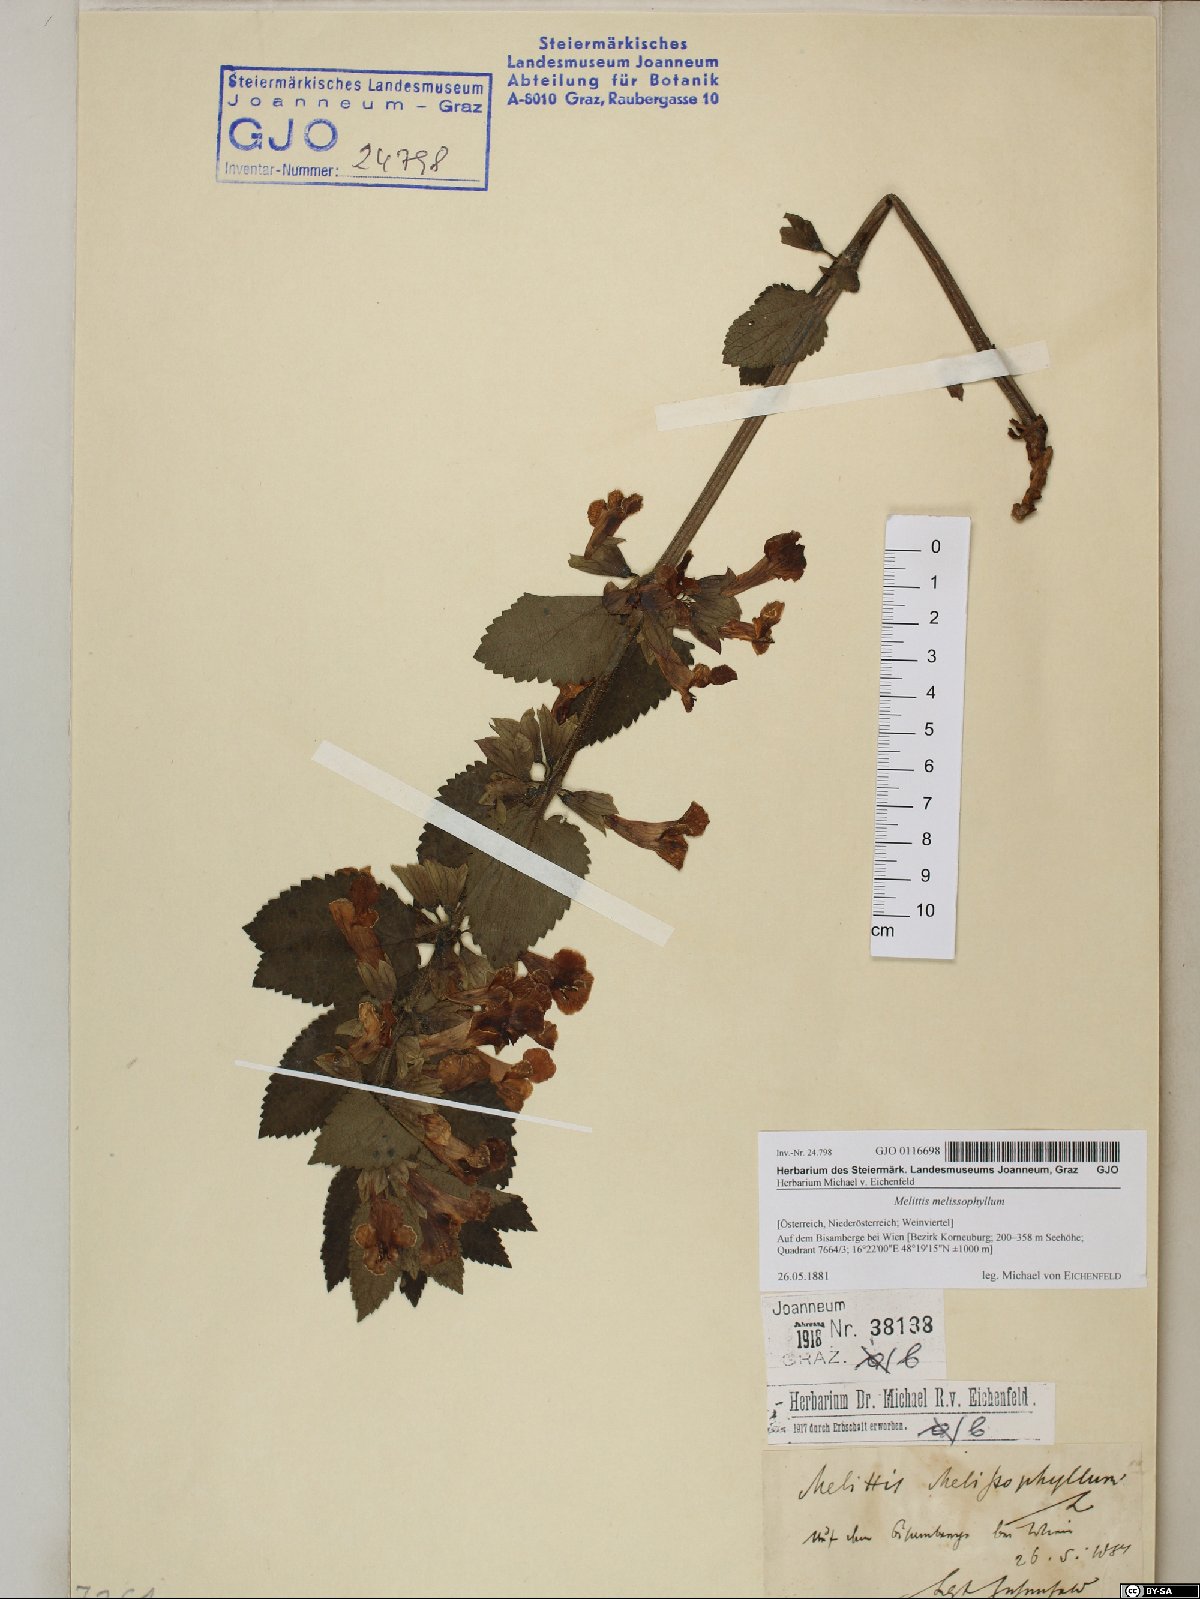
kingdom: Plantae
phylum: Tracheophyta
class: Magnoliopsida
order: Lamiales
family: Lamiaceae
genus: Melittis
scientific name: Melittis melissophyllum
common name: Bastard balm
